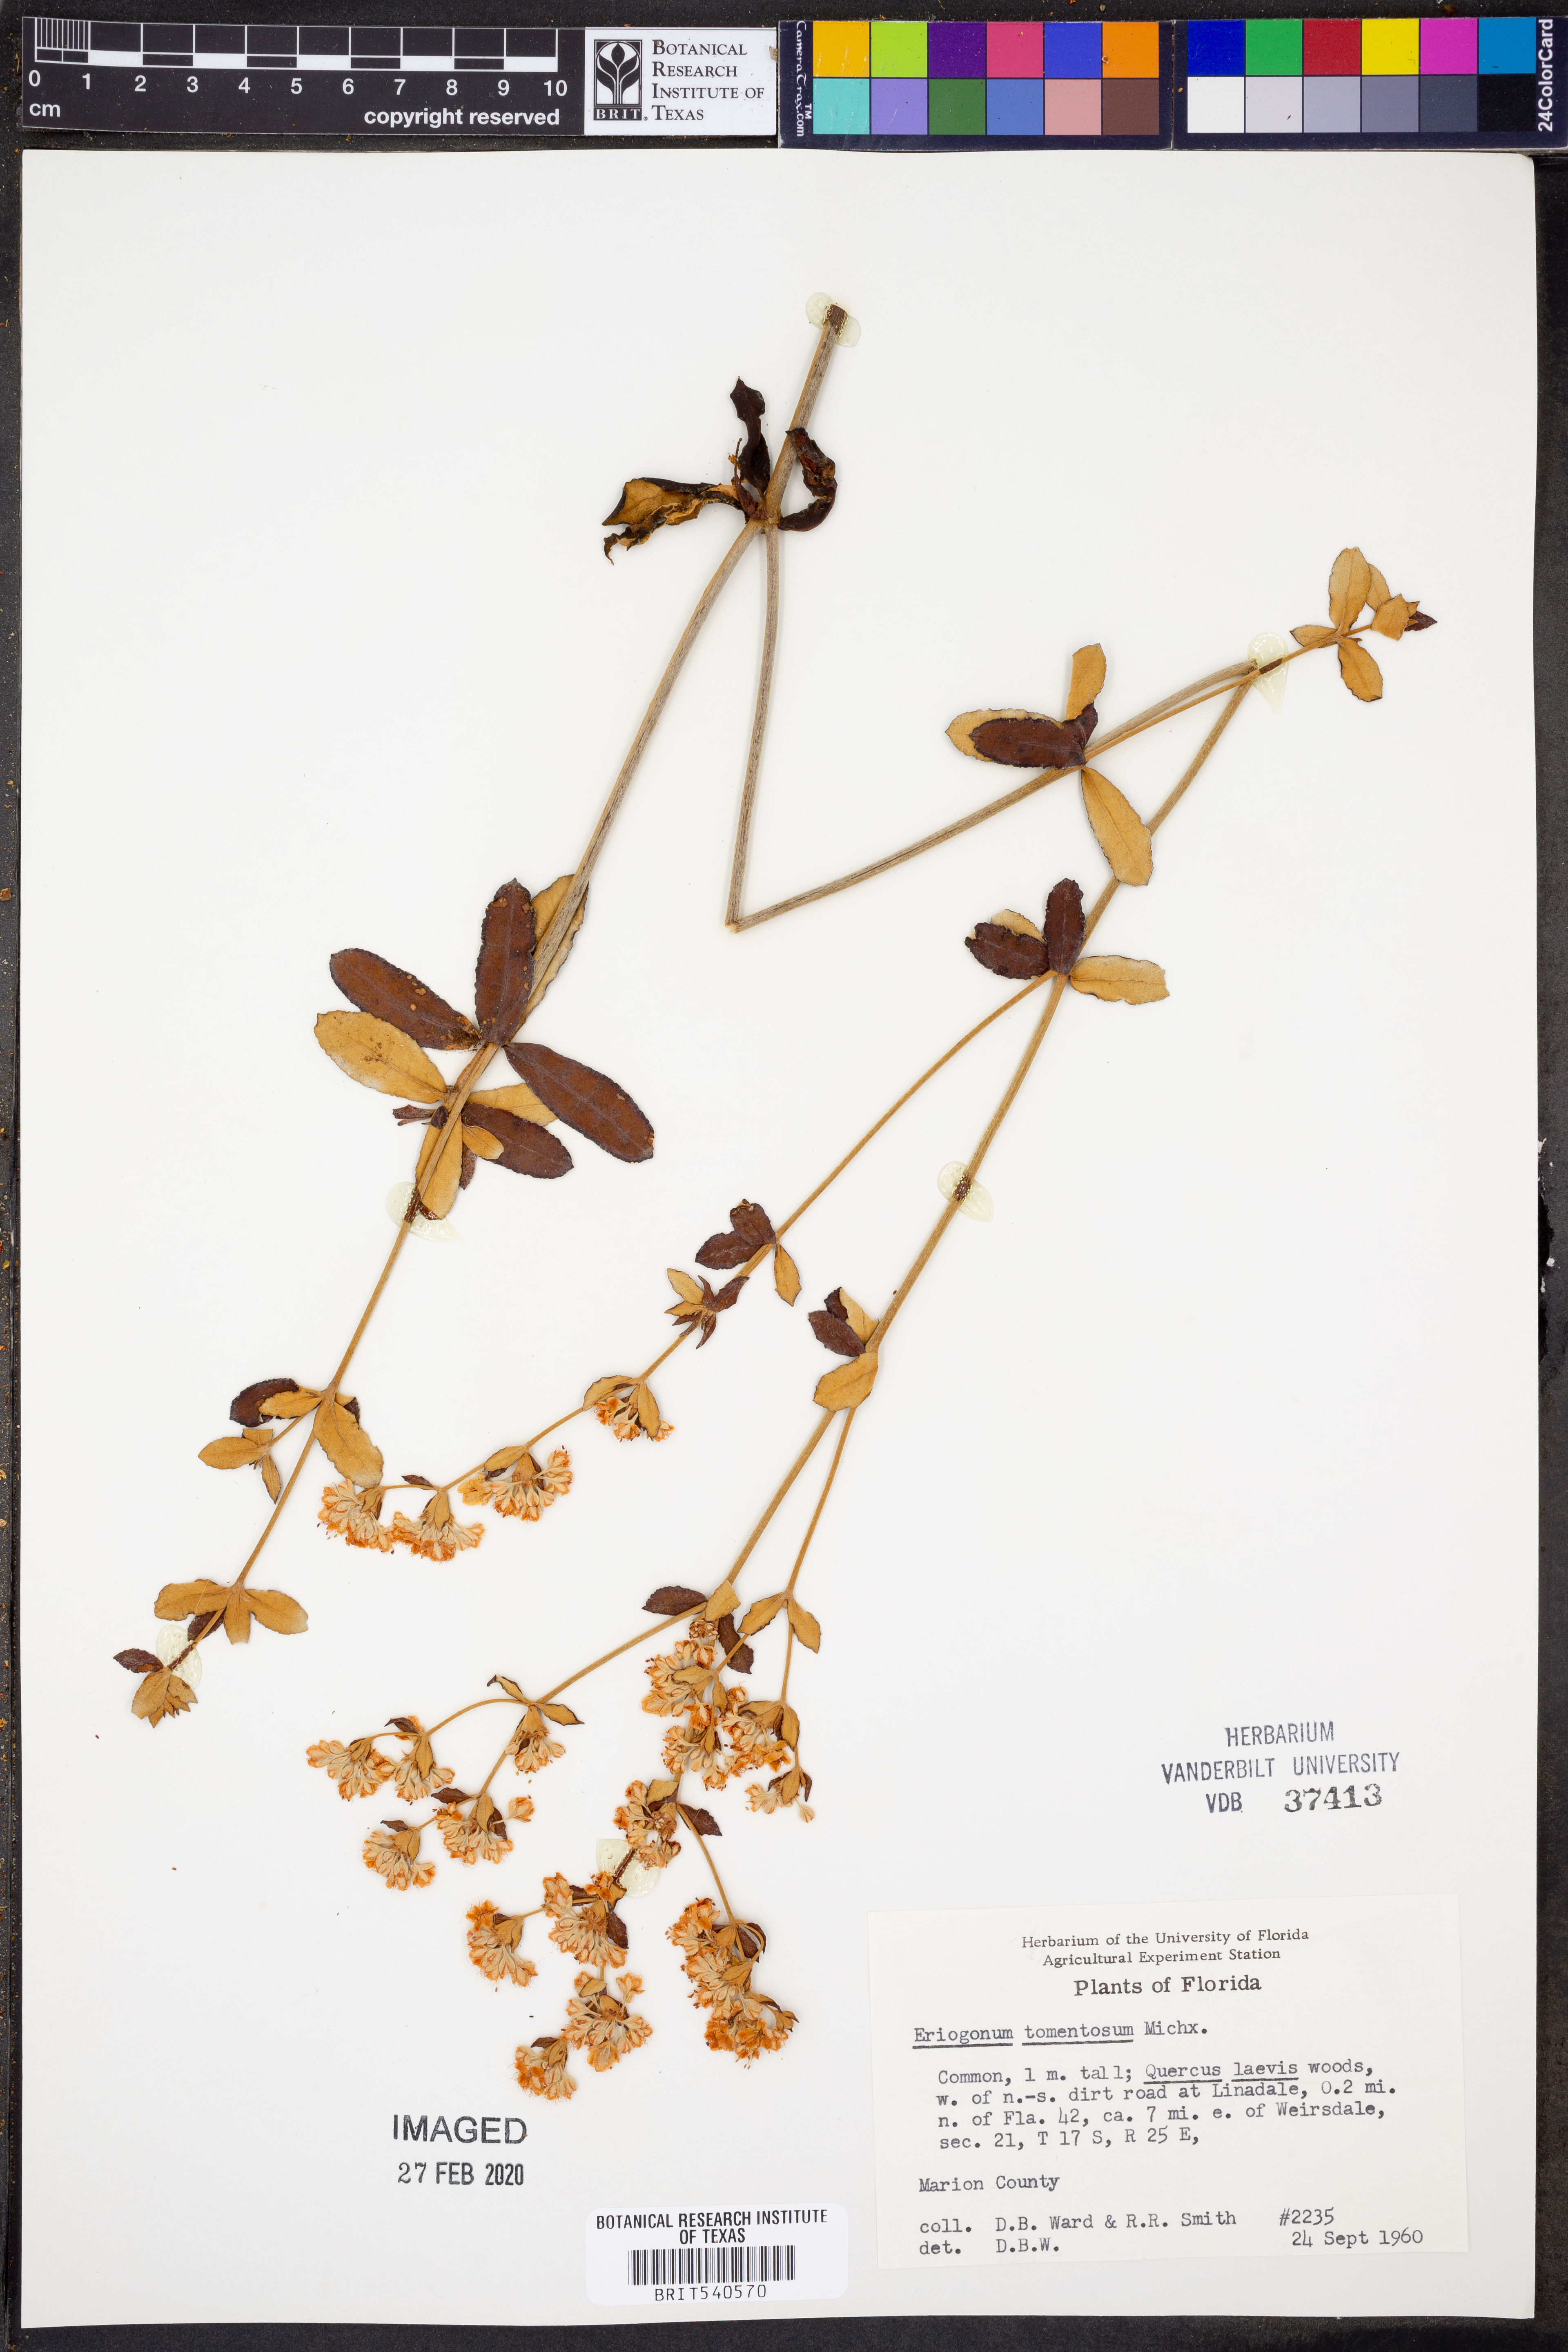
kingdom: Plantae
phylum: Tracheophyta
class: Magnoliopsida
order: Caryophyllales
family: Polygonaceae
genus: Eriogonum
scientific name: Eriogonum tomentosum
